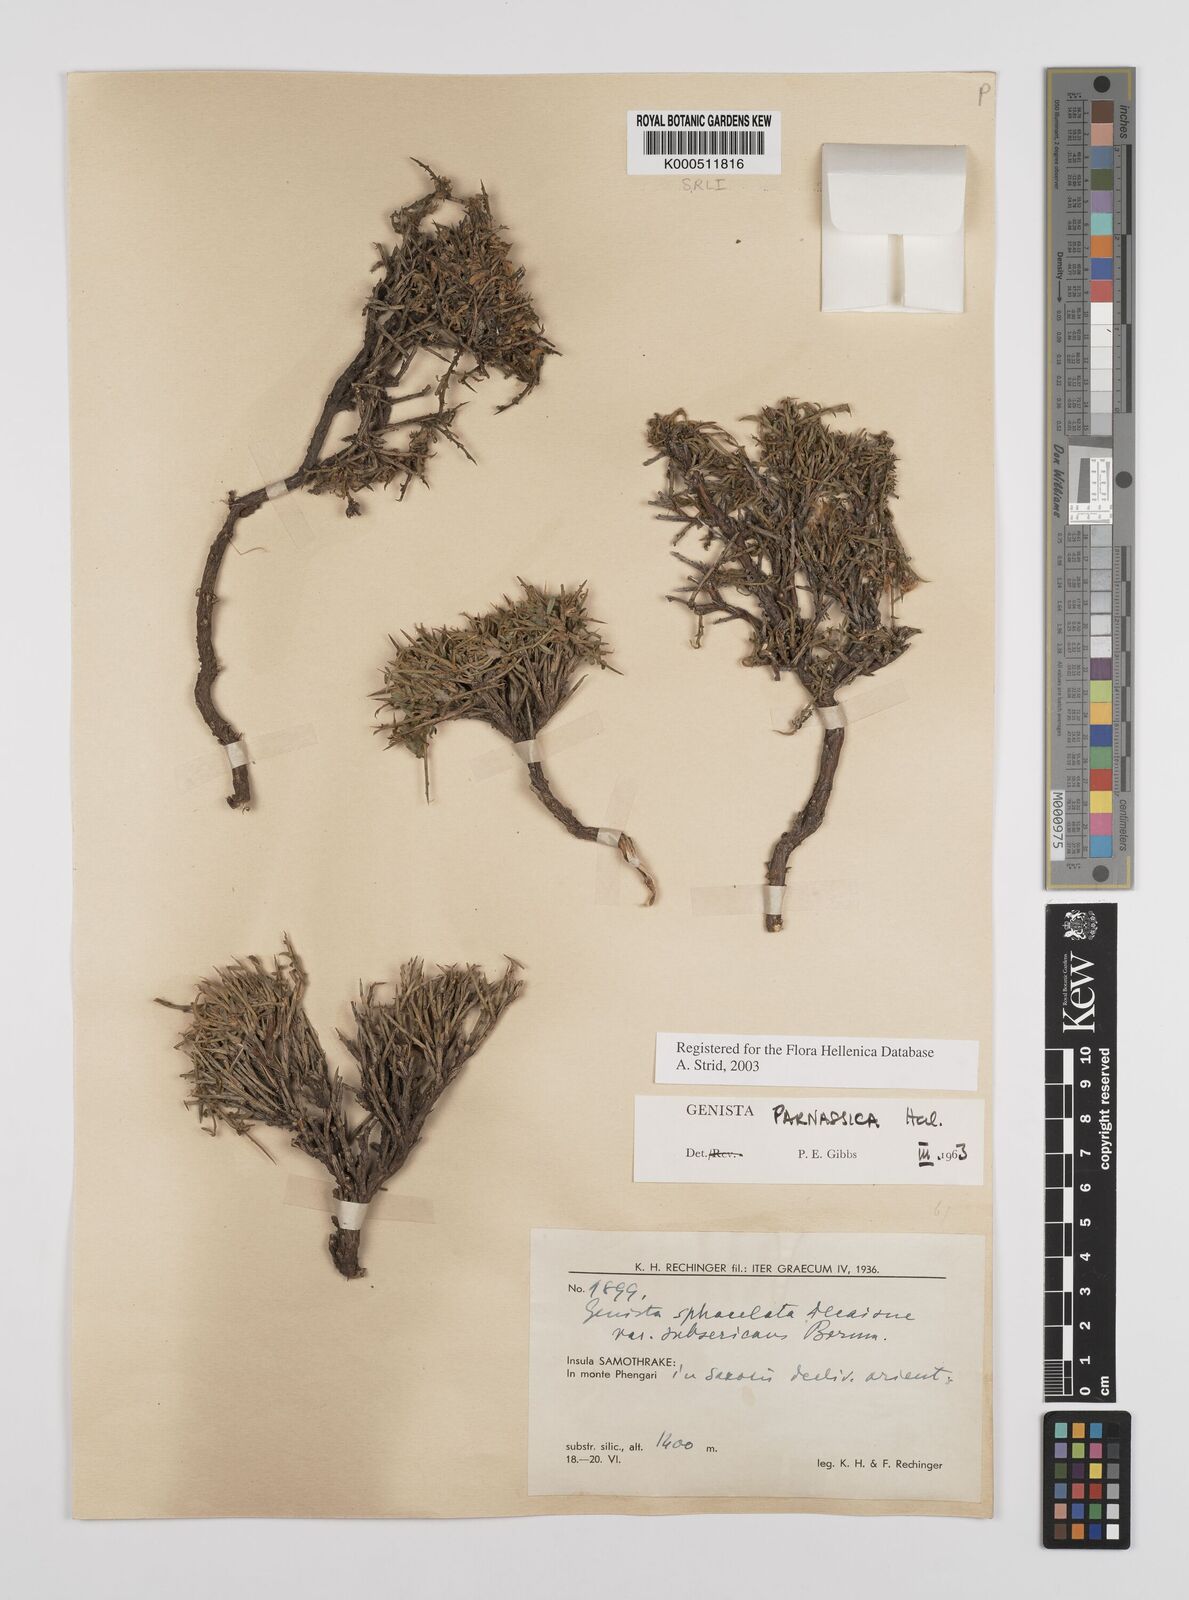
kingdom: Plantae
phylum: Tracheophyta
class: Magnoliopsida
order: Fabales
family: Fabaceae
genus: Genista
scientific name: Genista parnassica
